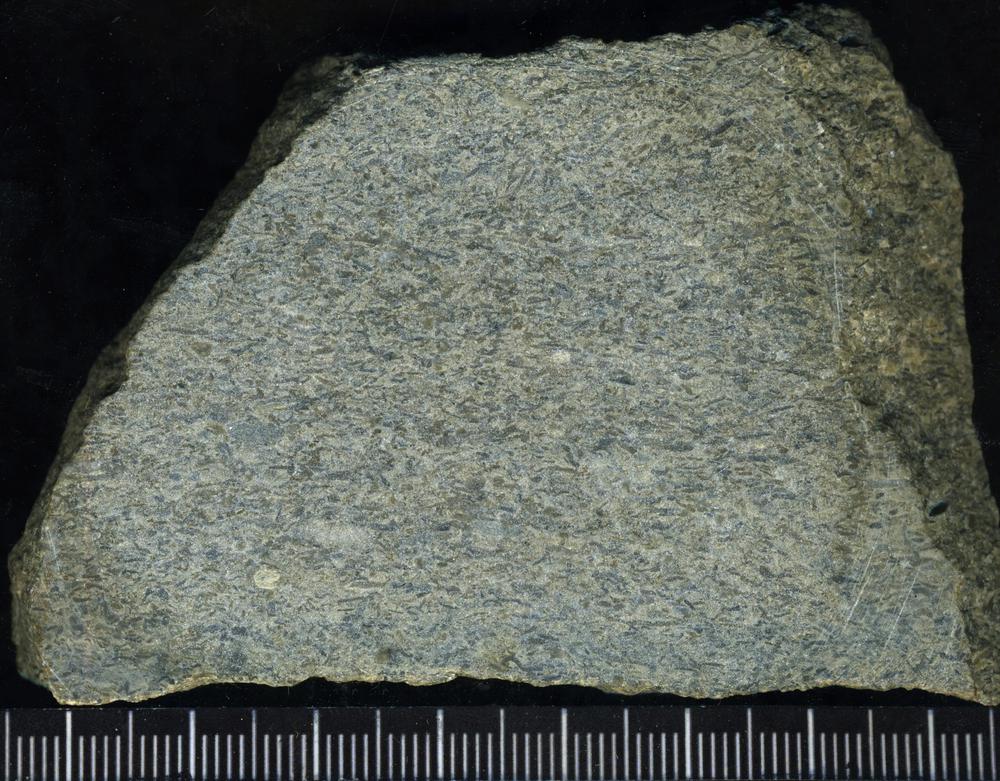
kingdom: Plantae
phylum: Tracheophyta
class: Pinopsida
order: Pinales
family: Cupressaceae
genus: Platycladus
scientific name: Platycladus
